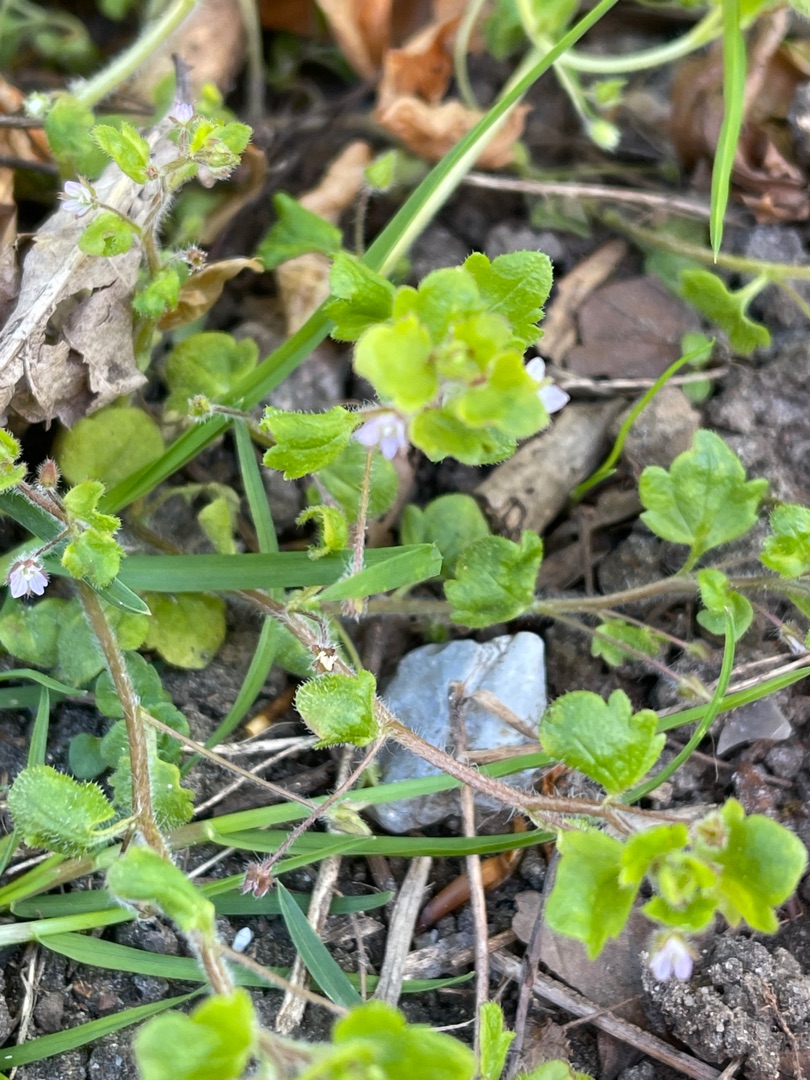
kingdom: Plantae
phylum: Tracheophyta
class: Magnoliopsida
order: Lamiales
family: Plantaginaceae
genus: Veronica
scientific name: Veronica sublobata
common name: Krat-ærenpris
